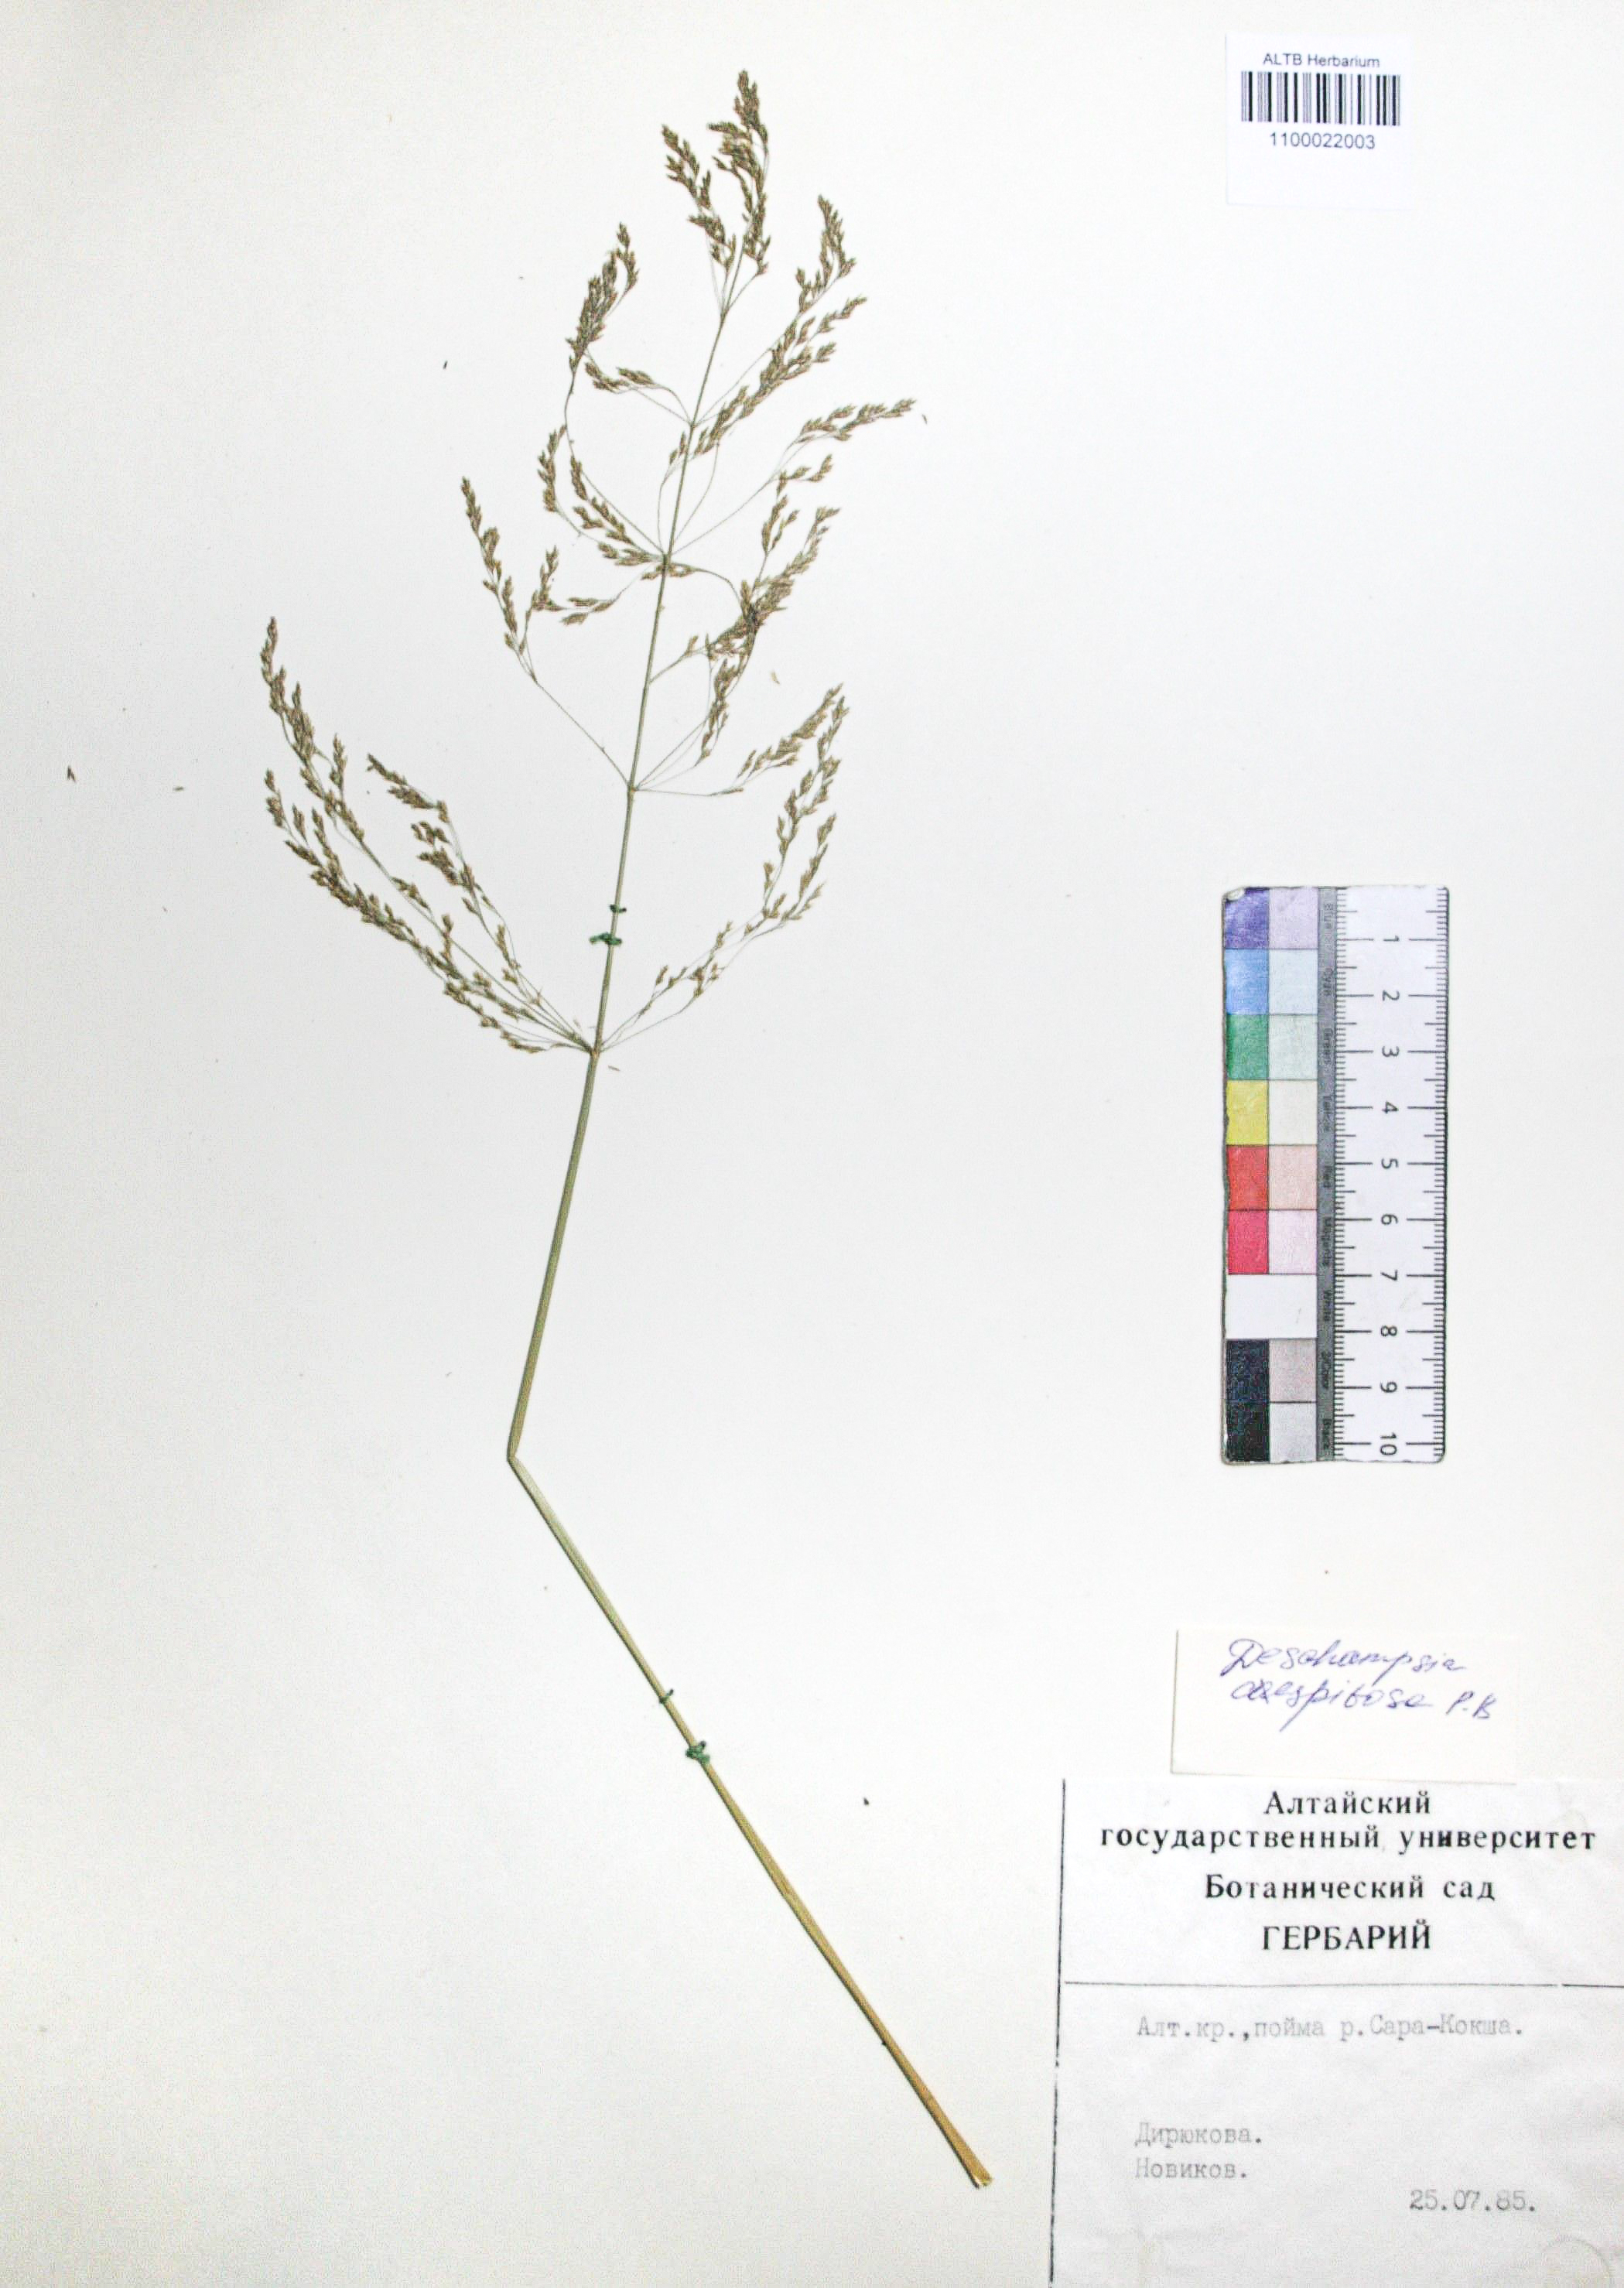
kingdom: Plantae
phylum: Tracheophyta
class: Liliopsida
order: Poales
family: Poaceae
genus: Deschampsia
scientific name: Deschampsia cespitosa
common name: Tufted hair-grass
